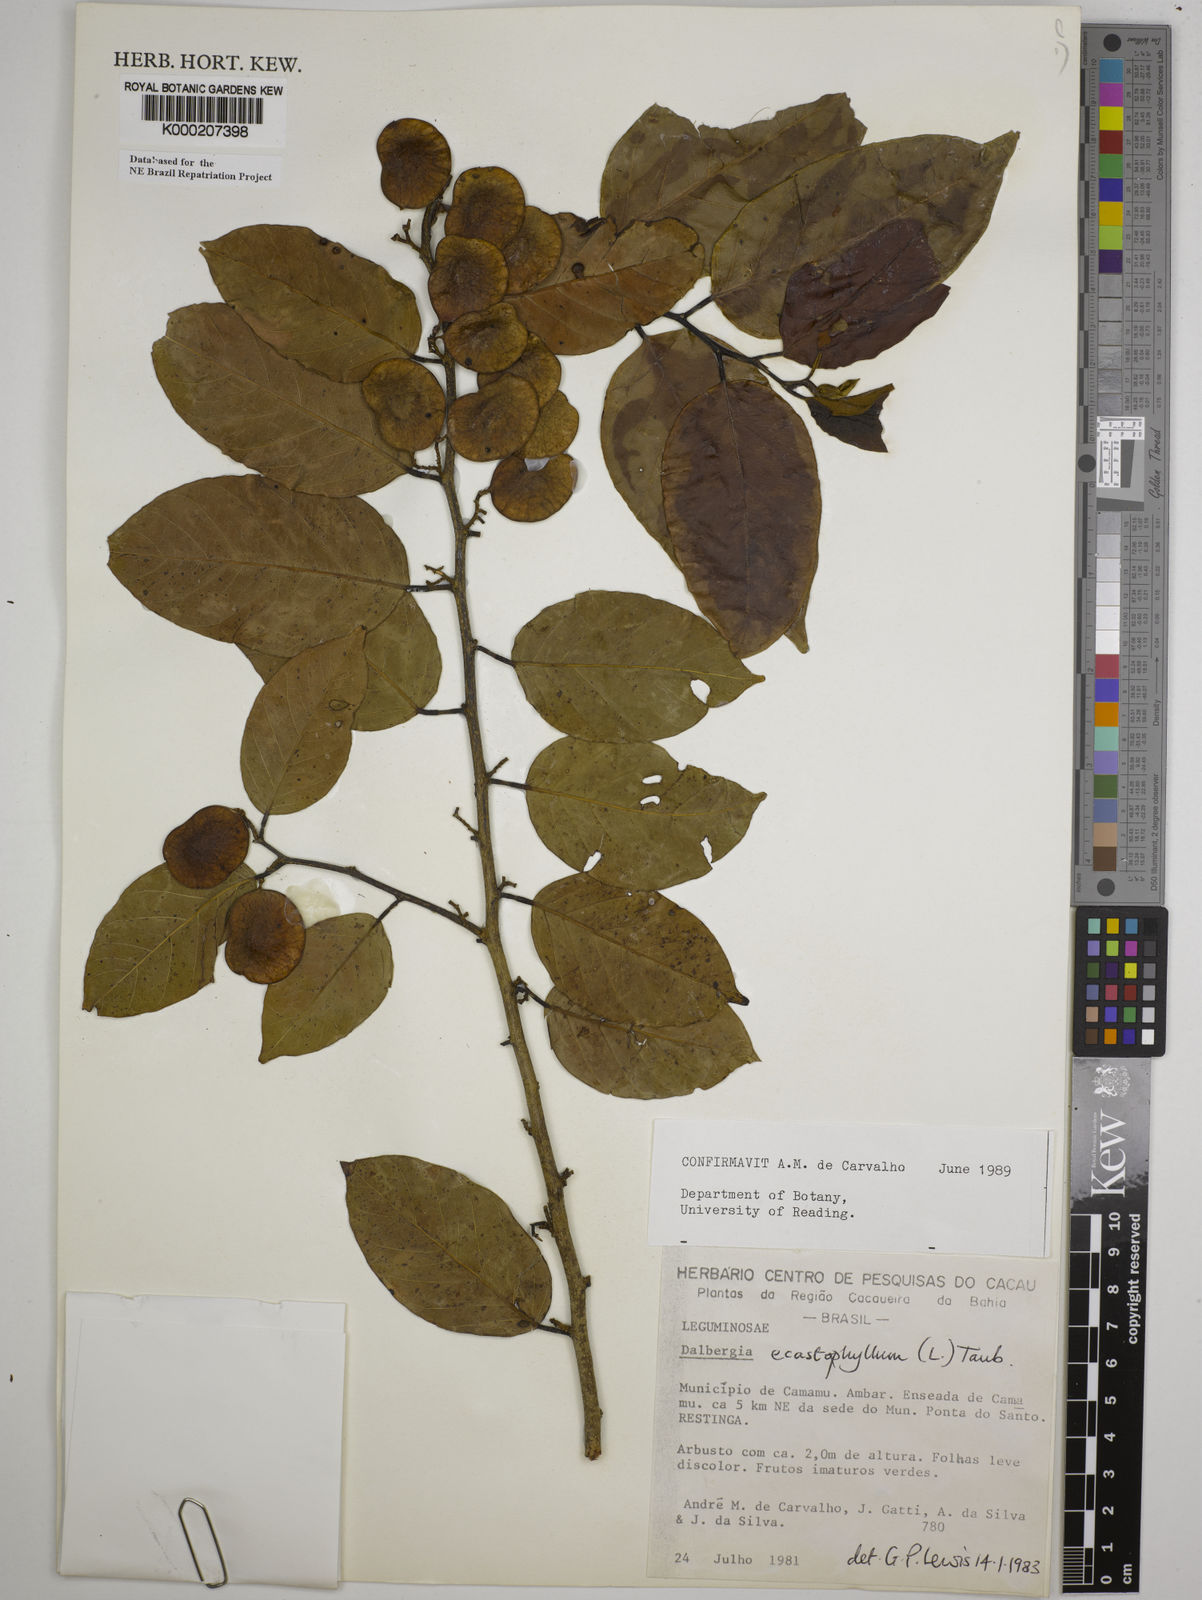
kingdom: Plantae
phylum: Tracheophyta
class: Magnoliopsida
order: Fabales
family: Fabaceae
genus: Dalbergia
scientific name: Dalbergia
